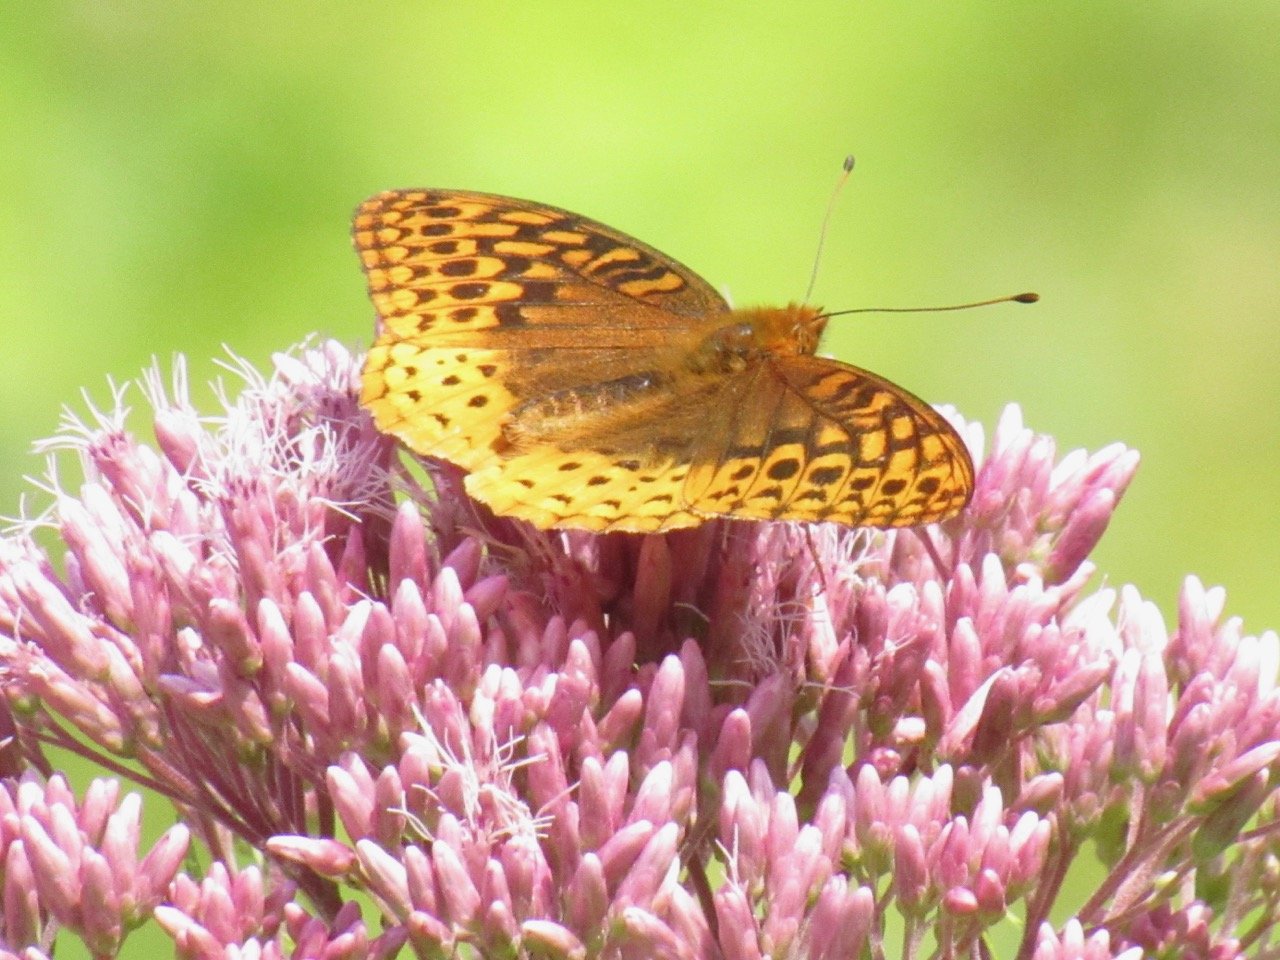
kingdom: Animalia
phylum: Arthropoda
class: Insecta
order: Lepidoptera
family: Nymphalidae
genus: Speyeria
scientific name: Speyeria cybele
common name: Great Spangled Fritillary
